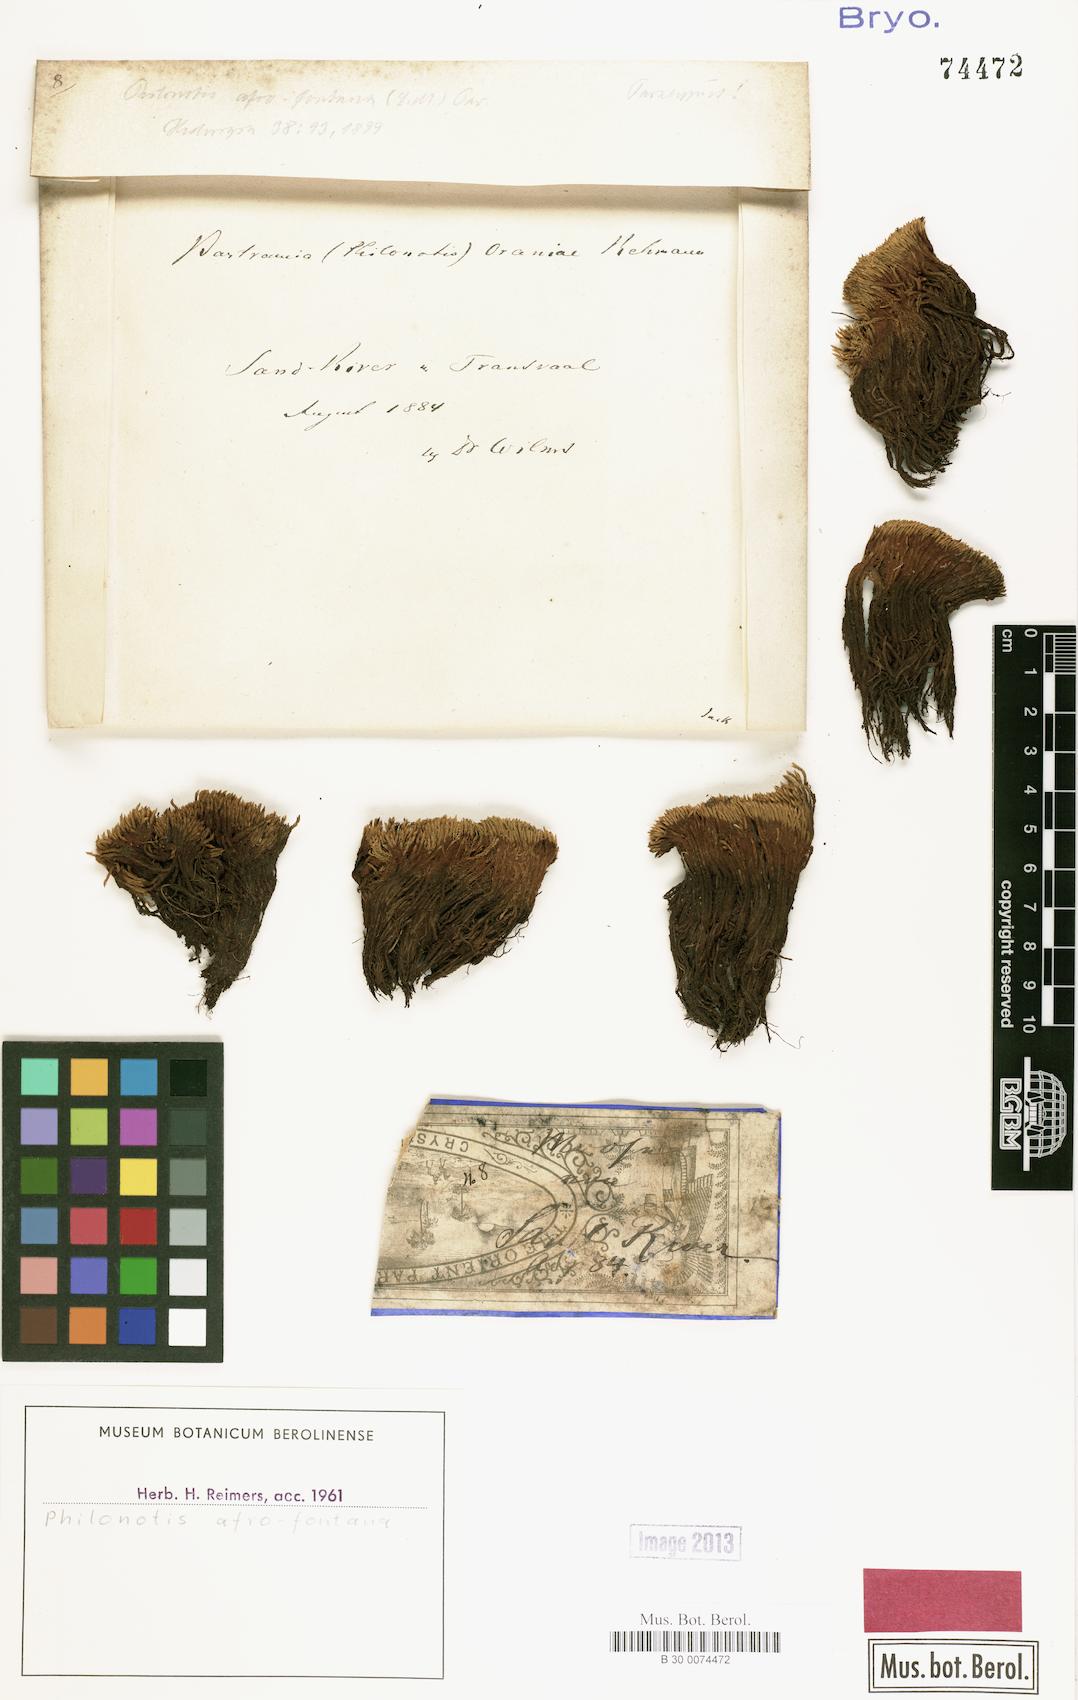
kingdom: Plantae
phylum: Bryophyta
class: Bryopsida
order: Bartramiales
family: Bartramiaceae
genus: Philonotis
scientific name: Philonotis falcata
